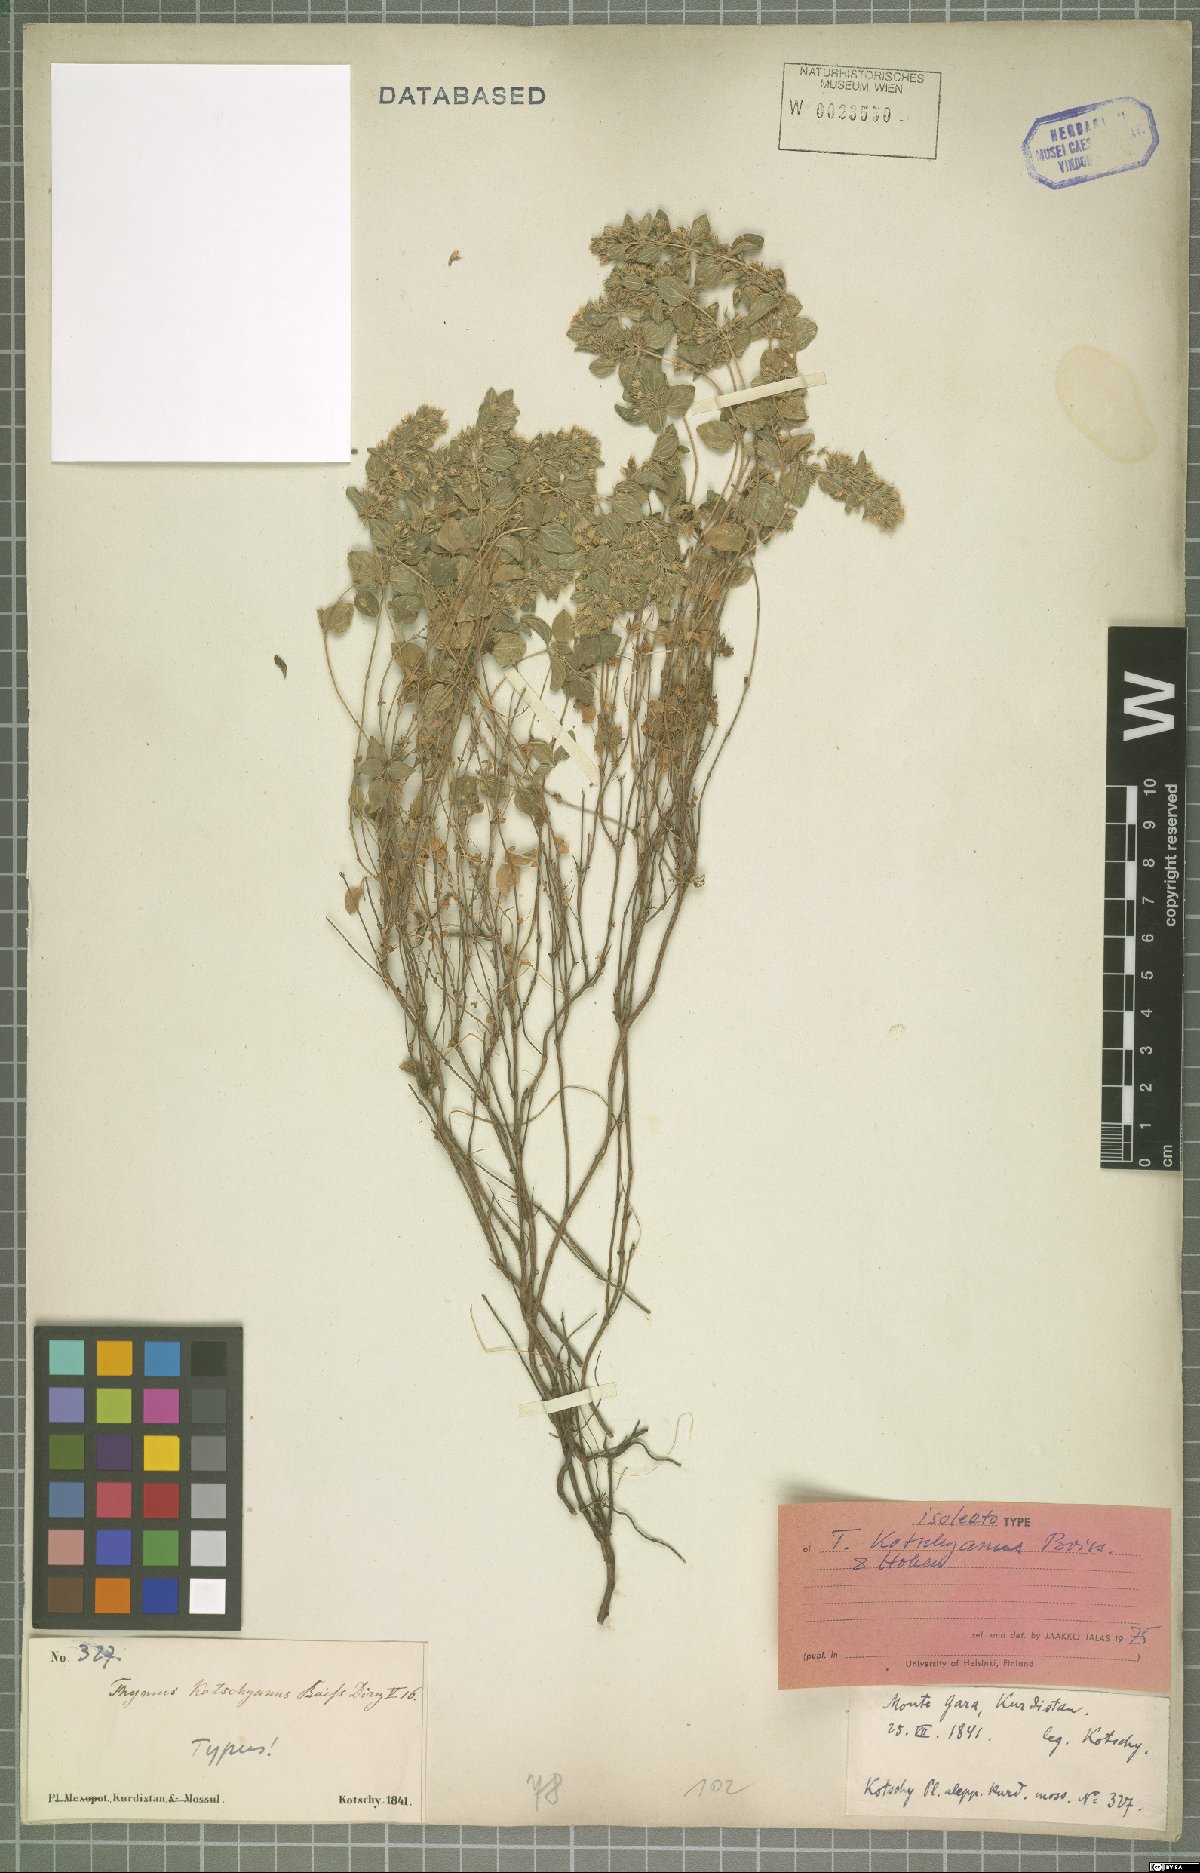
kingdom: Plantae
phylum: Tracheophyta
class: Magnoliopsida
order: Lamiales
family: Lamiaceae
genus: Thymus
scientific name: Thymus kotschyanus
